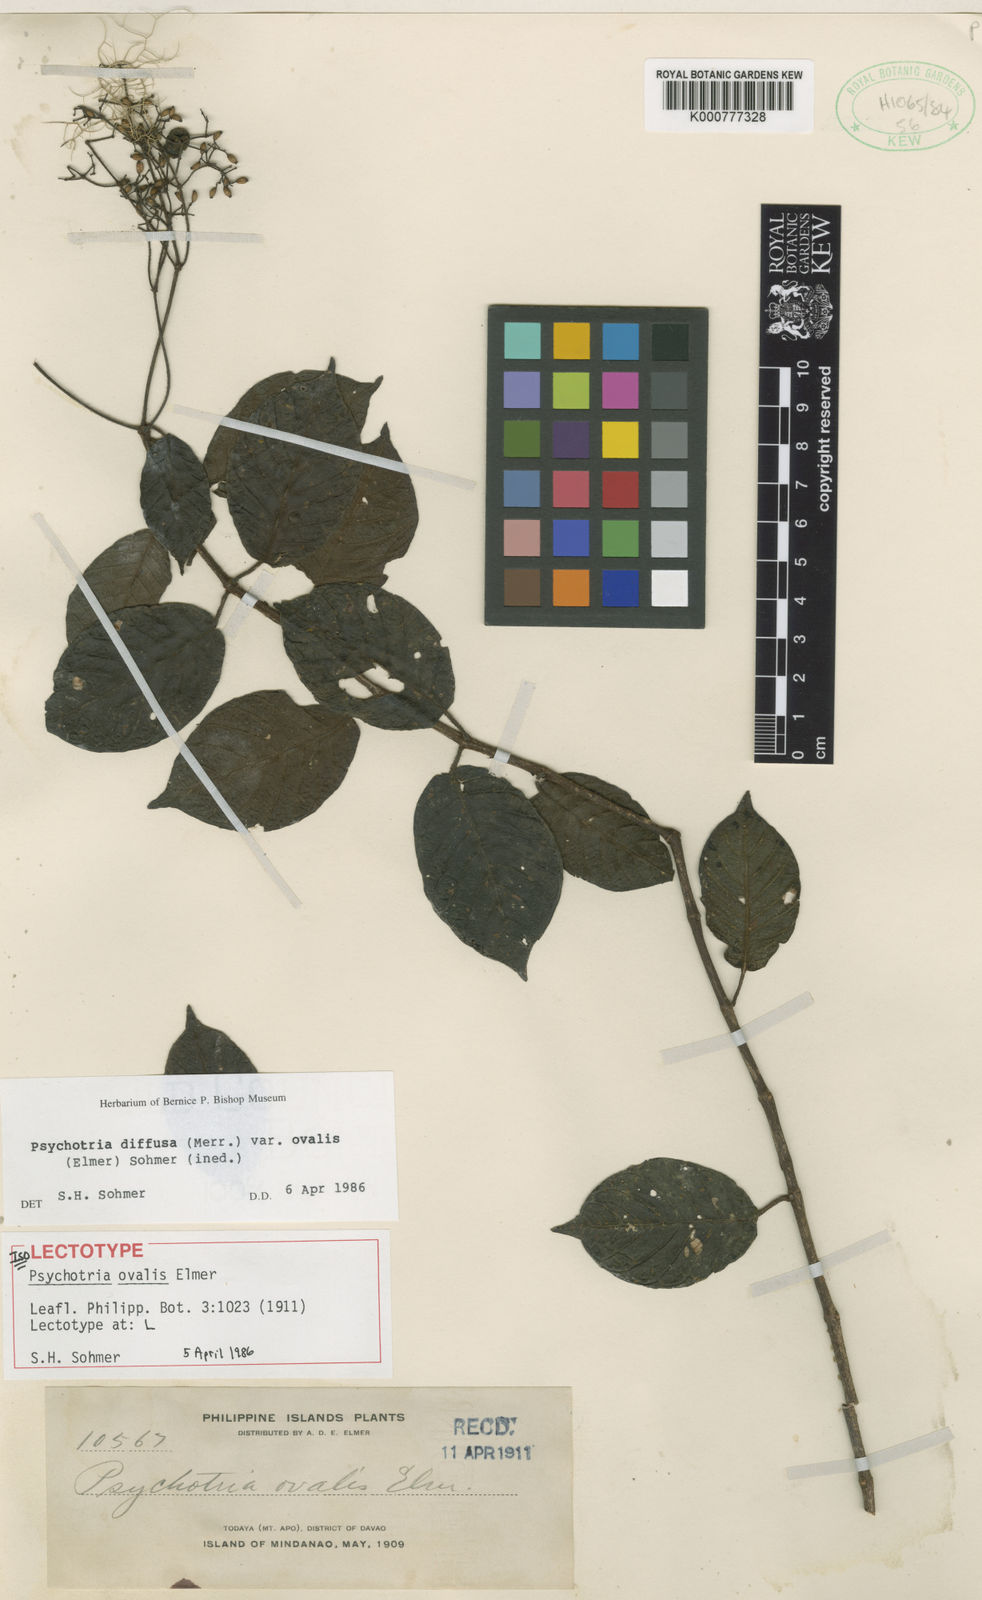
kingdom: Plantae
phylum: Tracheophyta
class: Magnoliopsida
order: Gentianales
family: Rubiaceae
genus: Psychotria
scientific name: Psychotria diffusa
